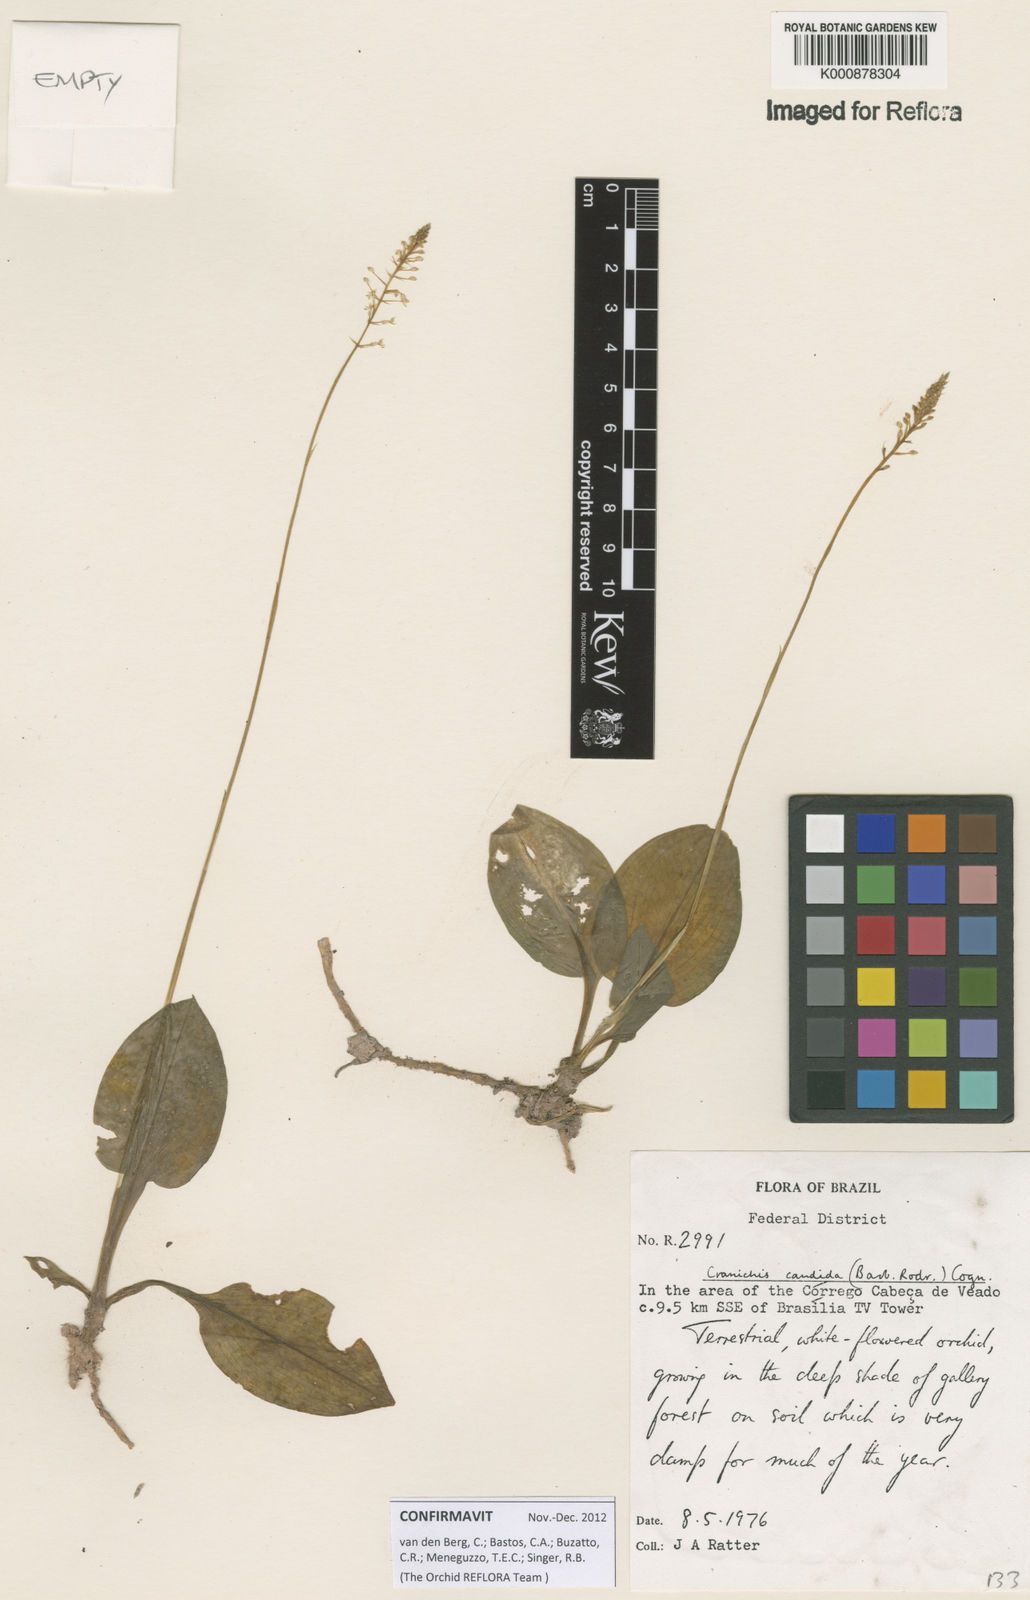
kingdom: Plantae
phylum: Tracheophyta
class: Liliopsida
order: Asparagales
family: Orchidaceae
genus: Cranichis
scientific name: Cranichis candida
